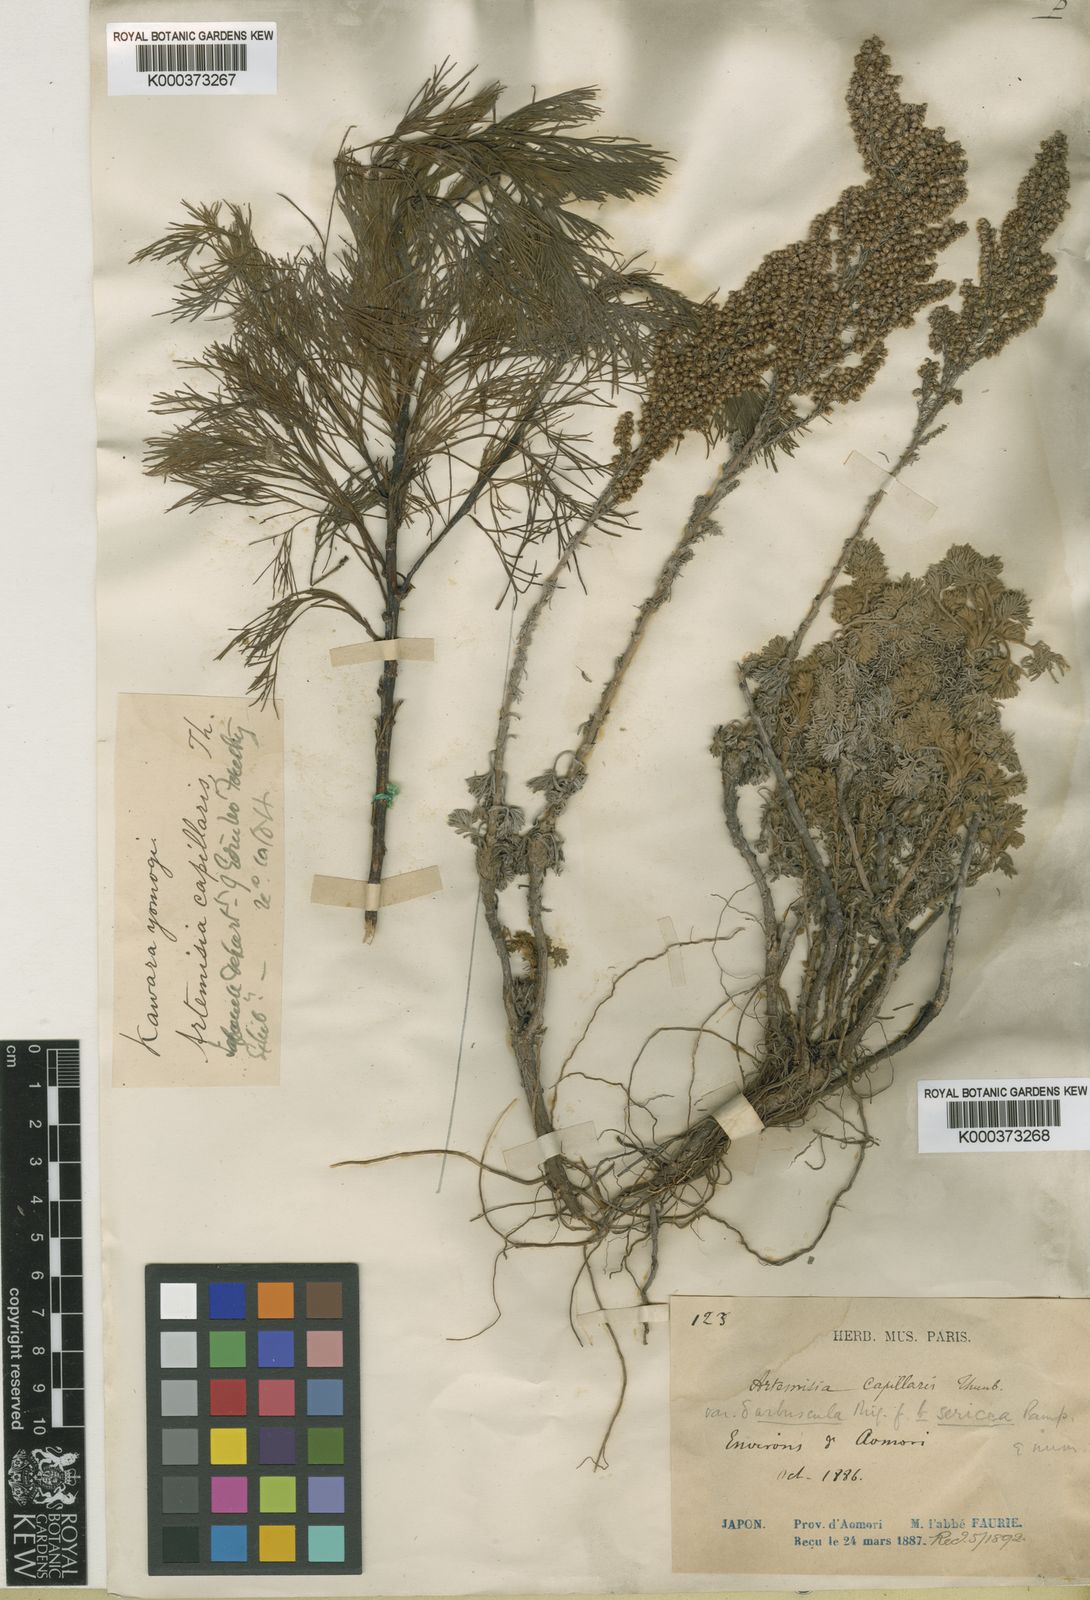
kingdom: Plantae
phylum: Tracheophyta
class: Magnoliopsida
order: Asterales
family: Asteraceae
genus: Artemisia
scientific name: Artemisia capillaris
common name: Yin-chen wormwood
